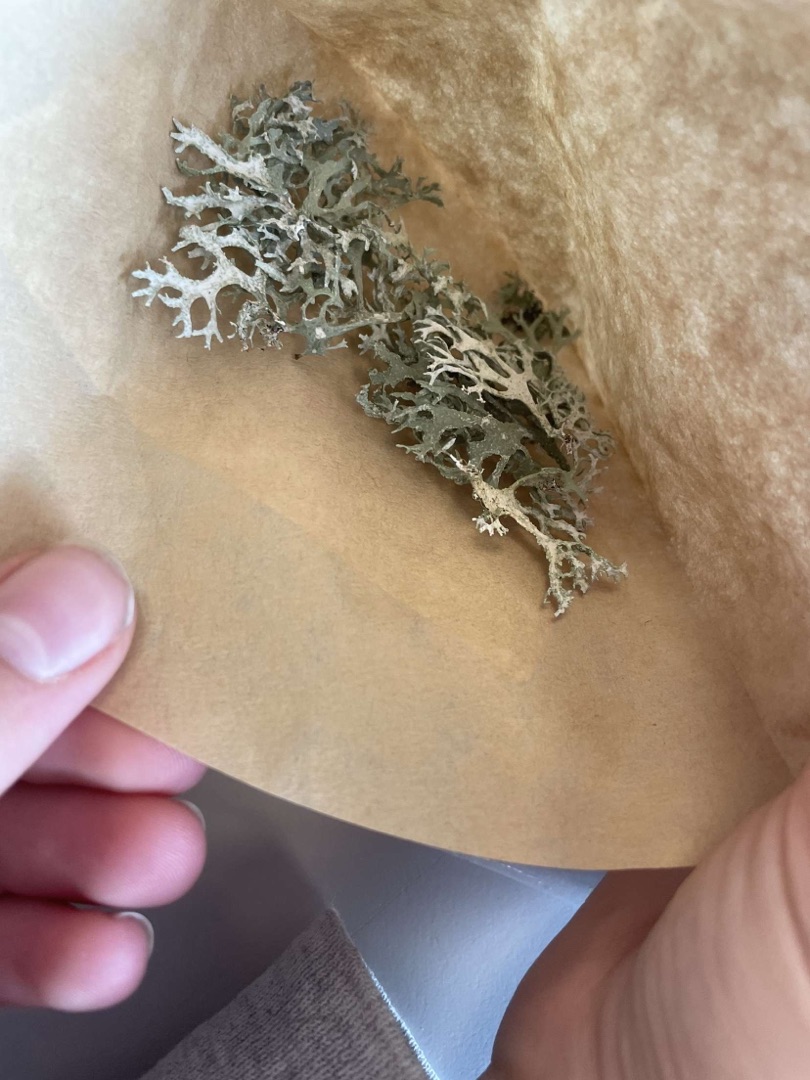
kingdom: Fungi
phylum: Ascomycota
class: Lecanoromycetes
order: Lecanorales
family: Parmeliaceae
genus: Evernia
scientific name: Evernia prunastri
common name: Almindelig slåenlav
